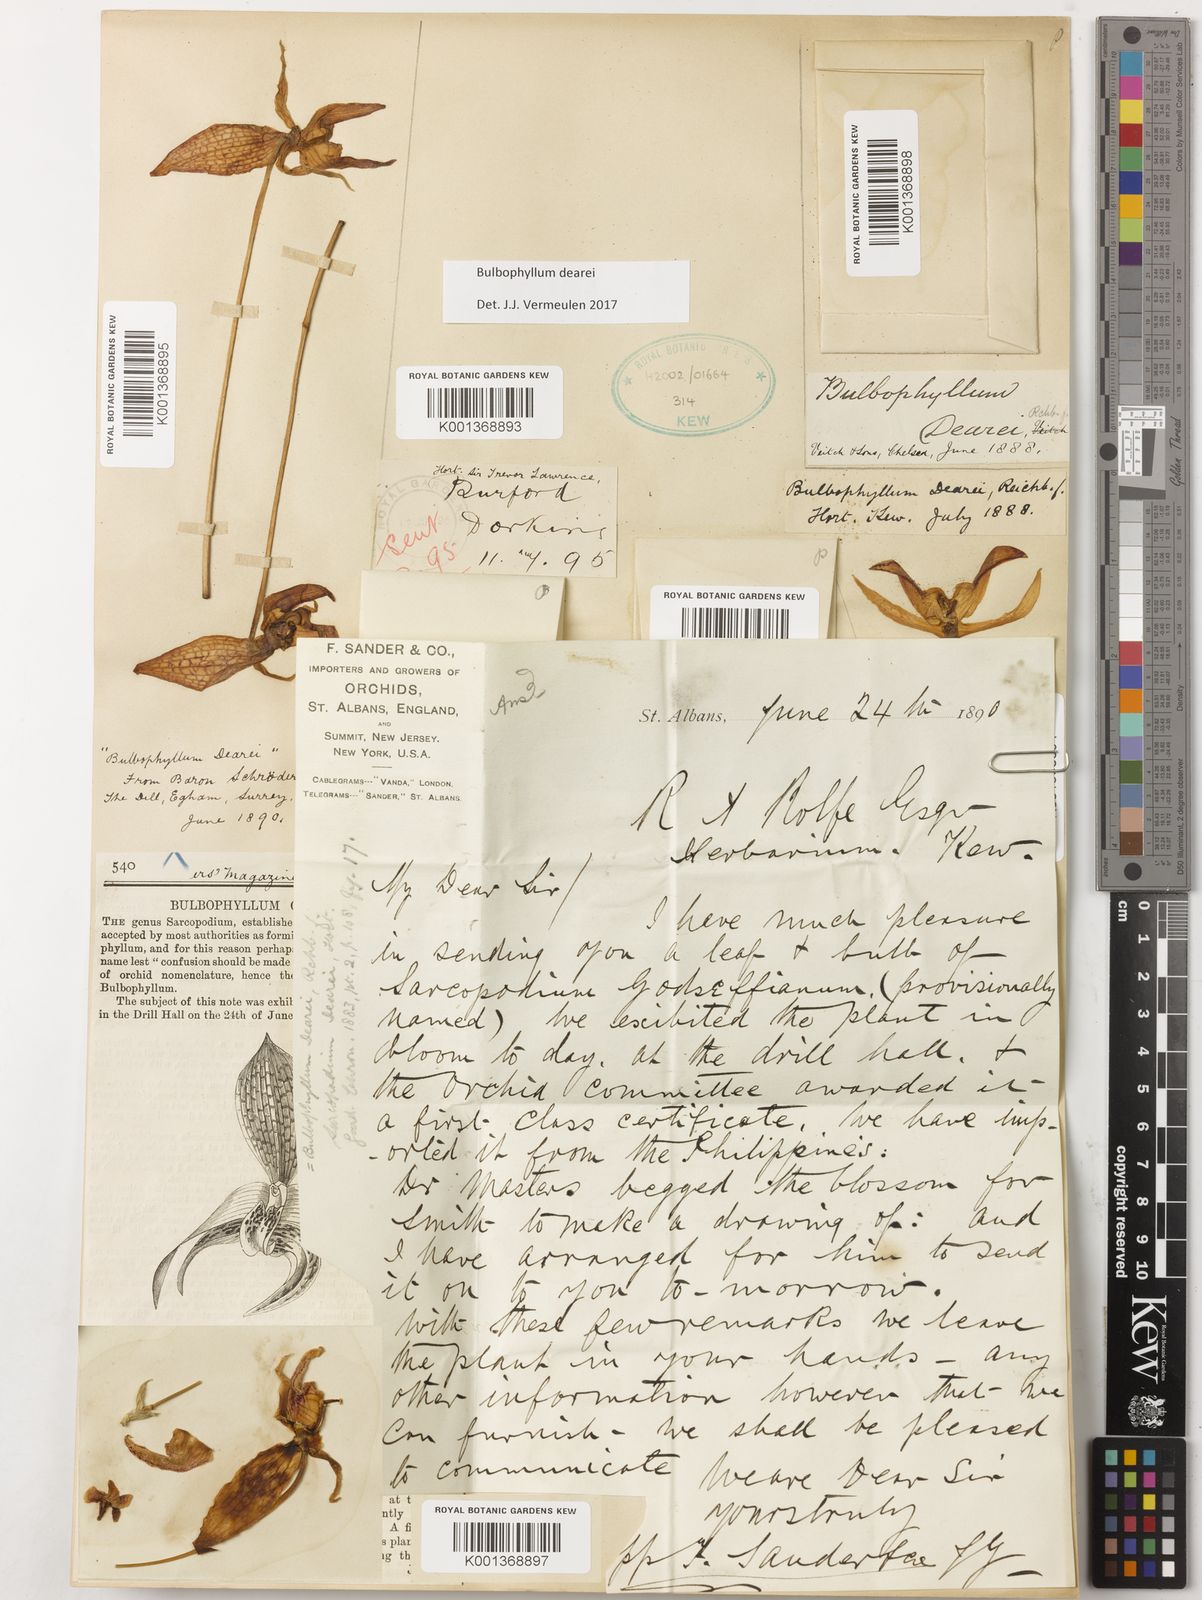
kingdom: Plantae
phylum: Tracheophyta
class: Liliopsida
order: Asparagales
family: Orchidaceae
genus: Bulbophyllum
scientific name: Bulbophyllum dearei
